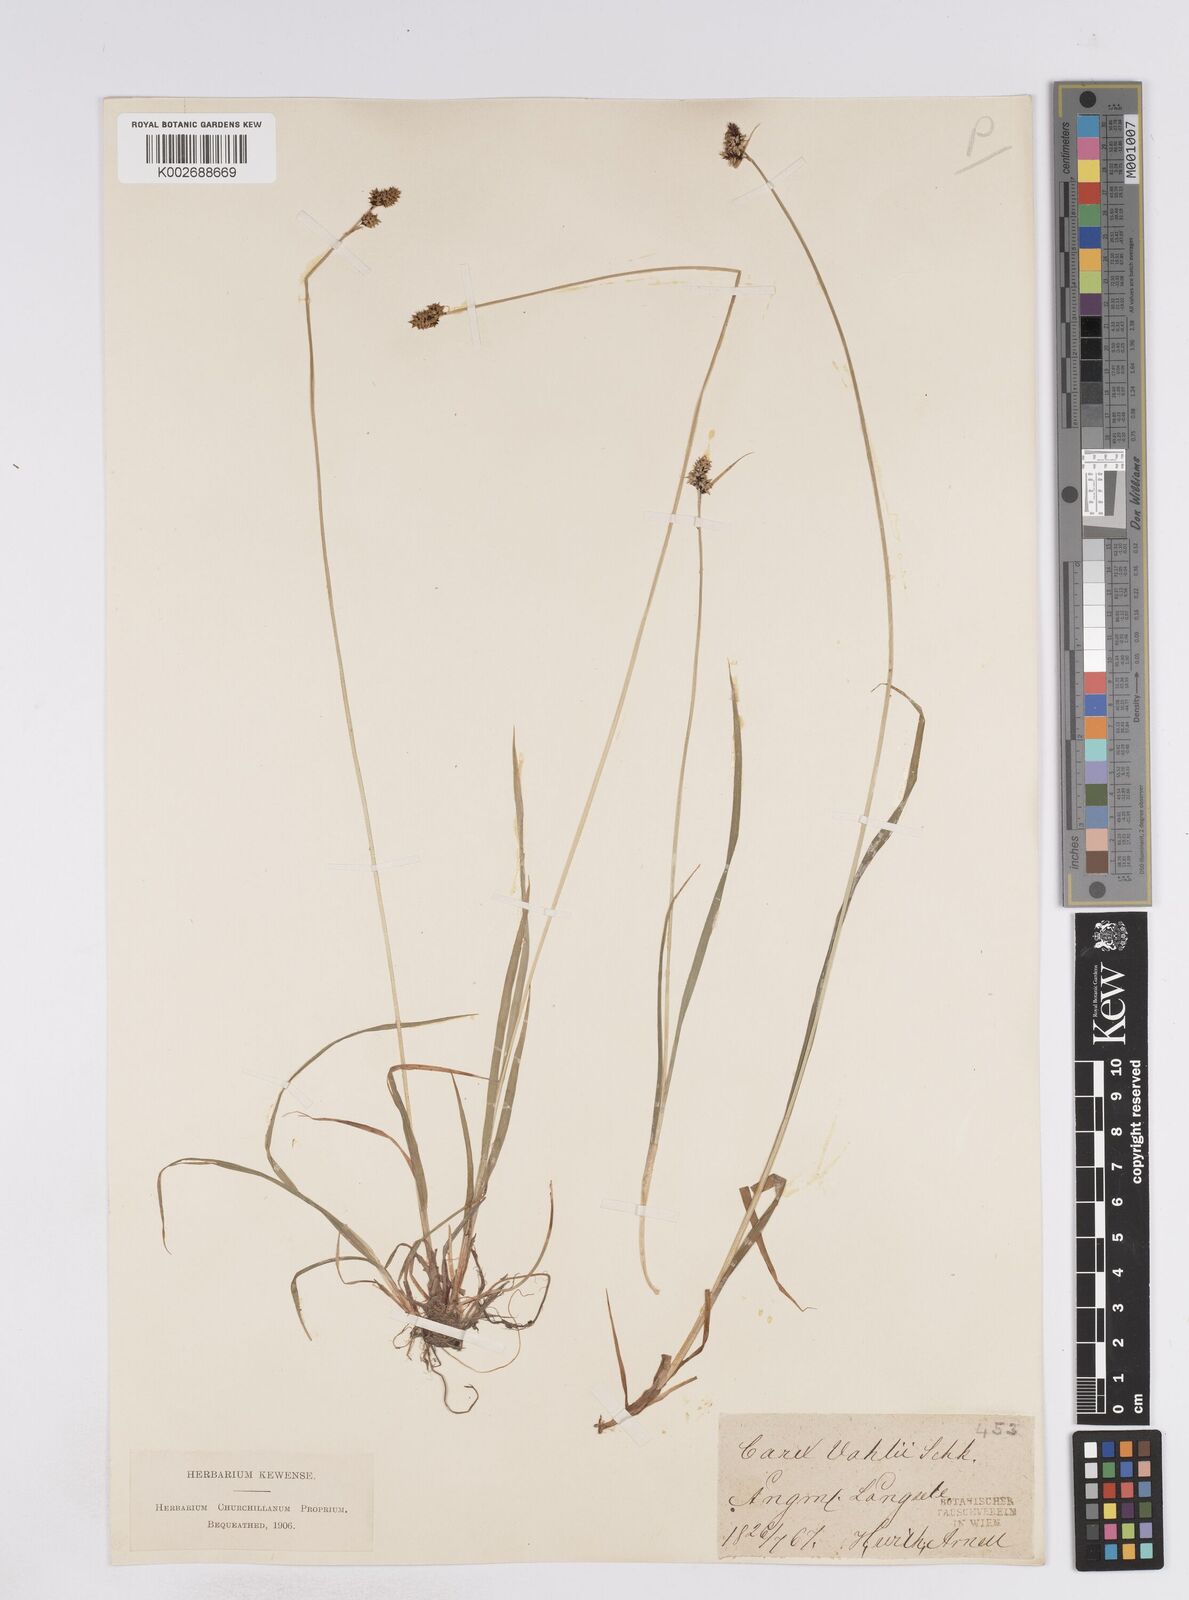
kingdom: Plantae
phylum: Tracheophyta
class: Liliopsida
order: Poales
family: Cyperaceae
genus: Carex
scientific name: Carex media
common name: Alpine sedge
